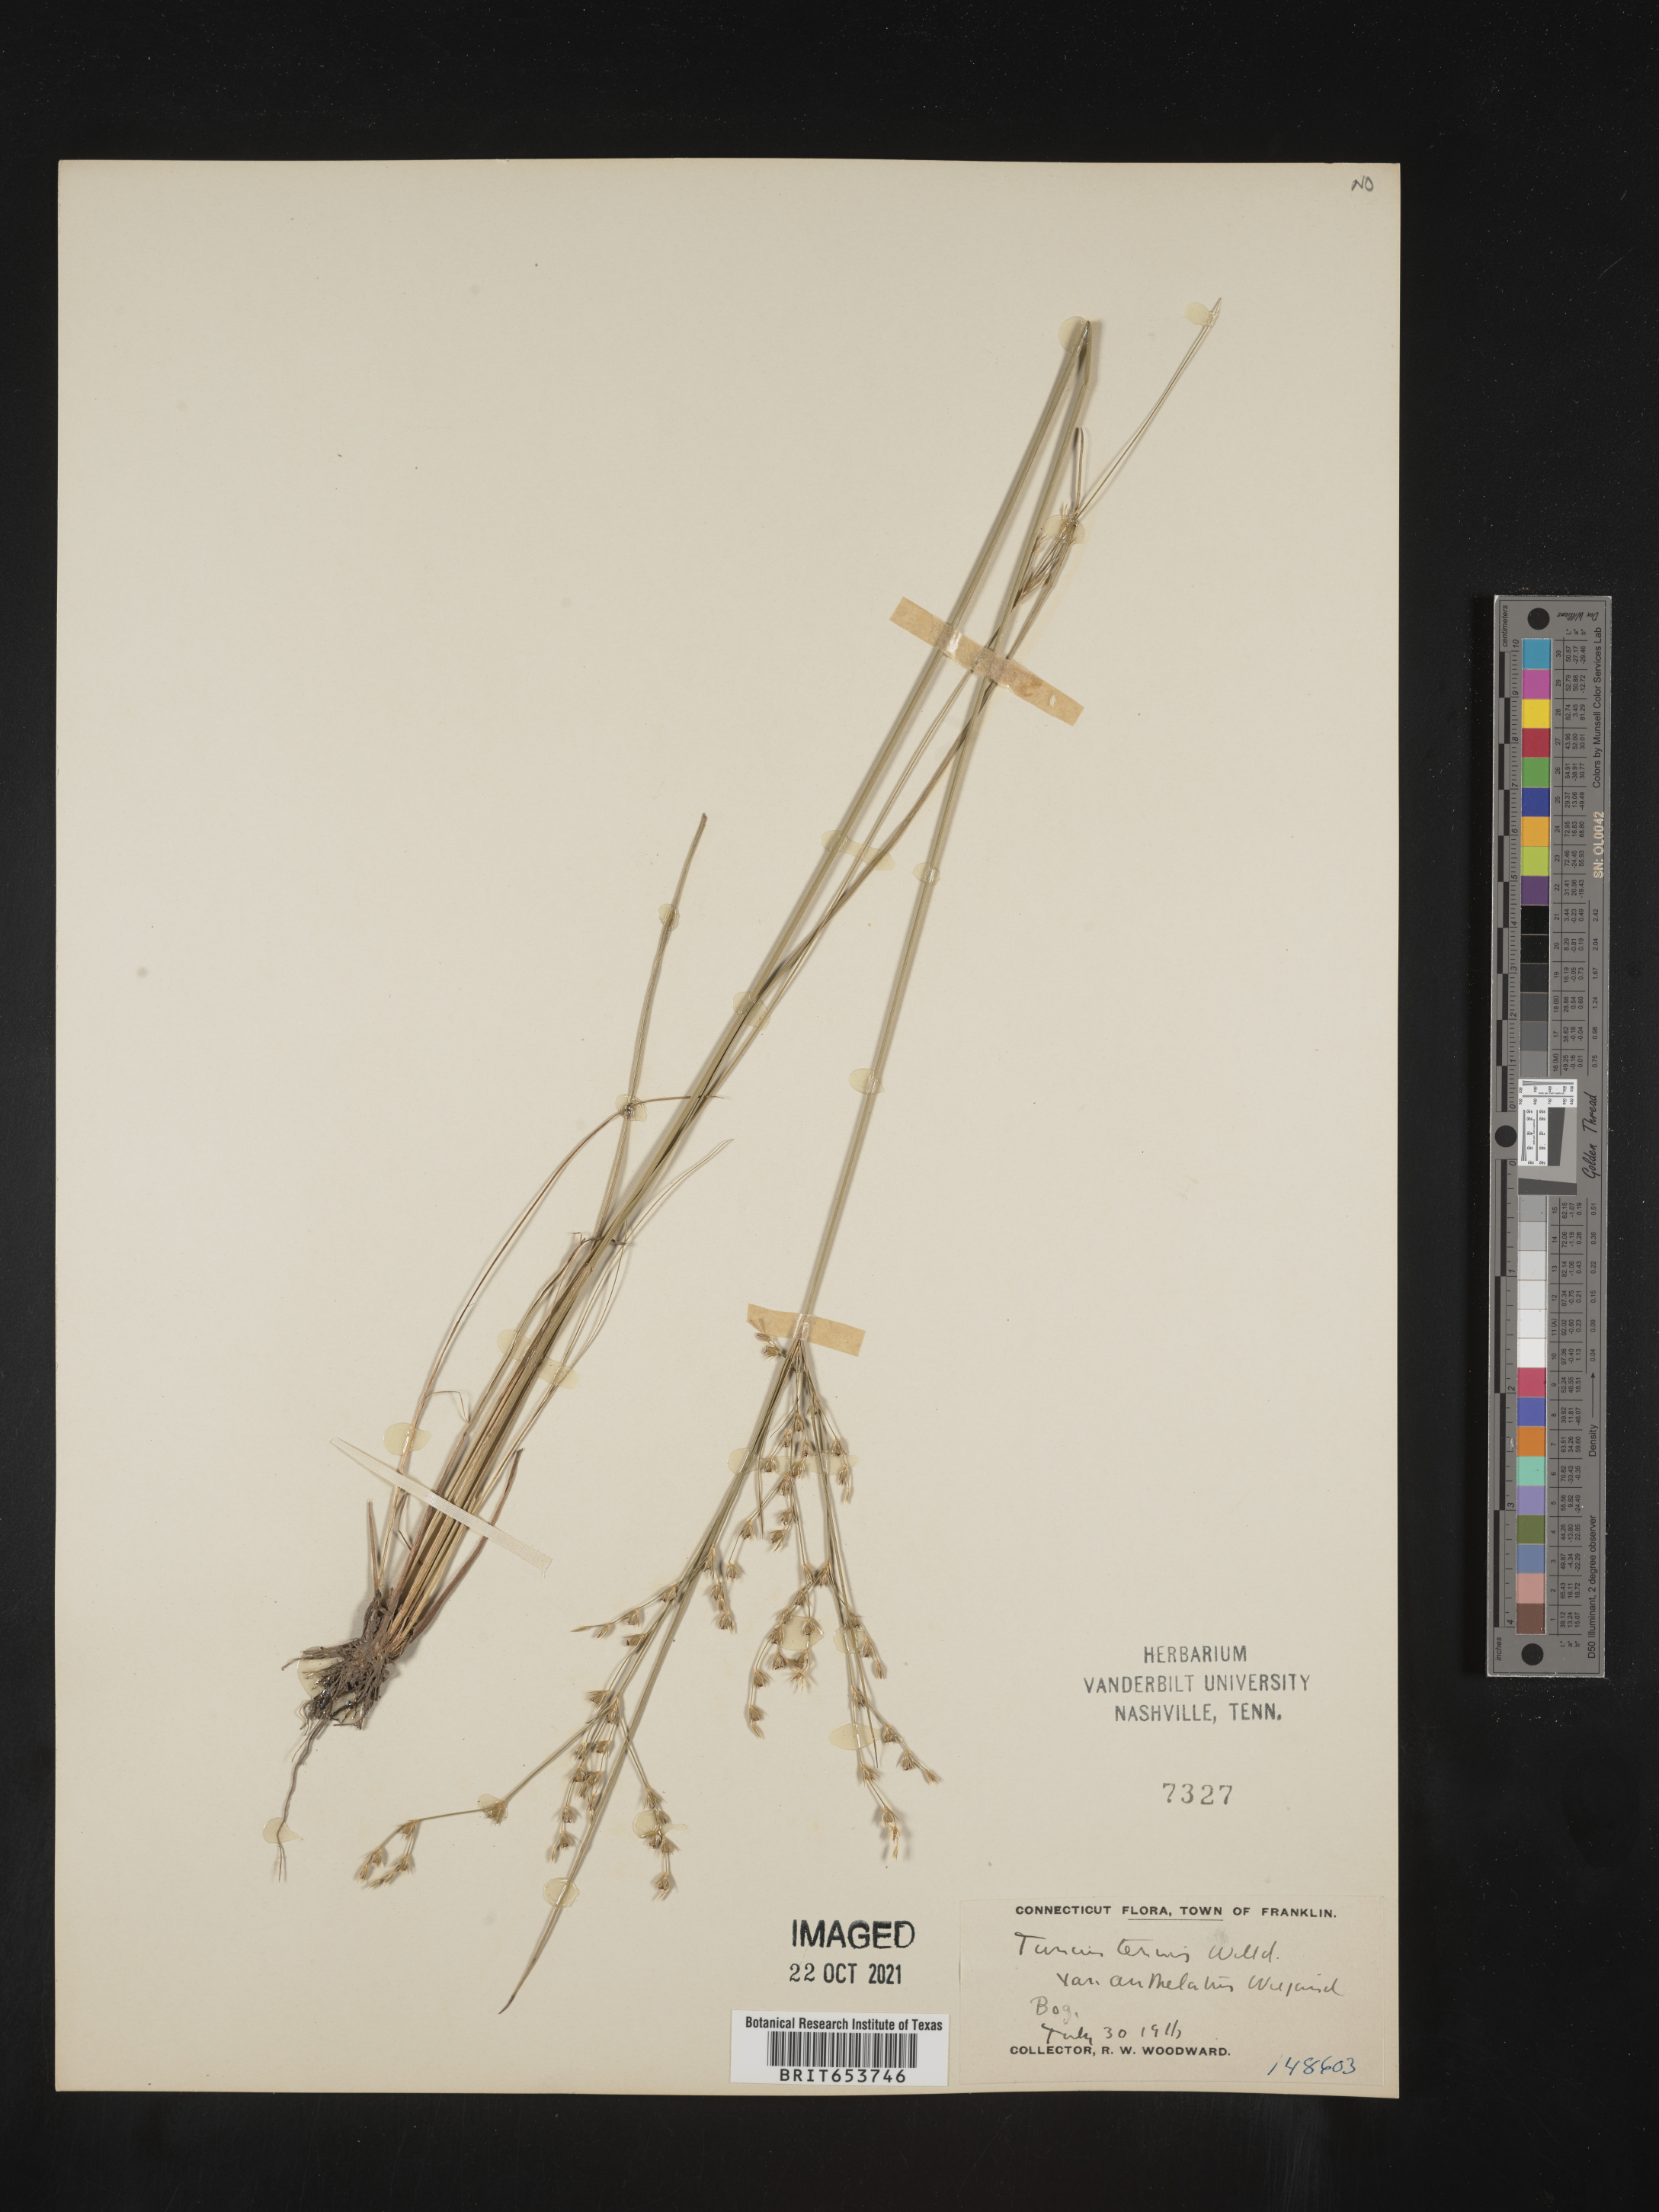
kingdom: Plantae
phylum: Tracheophyta
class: Liliopsida
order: Poales
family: Juncaceae
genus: Juncus
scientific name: Juncus tenuis
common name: Slender rush
